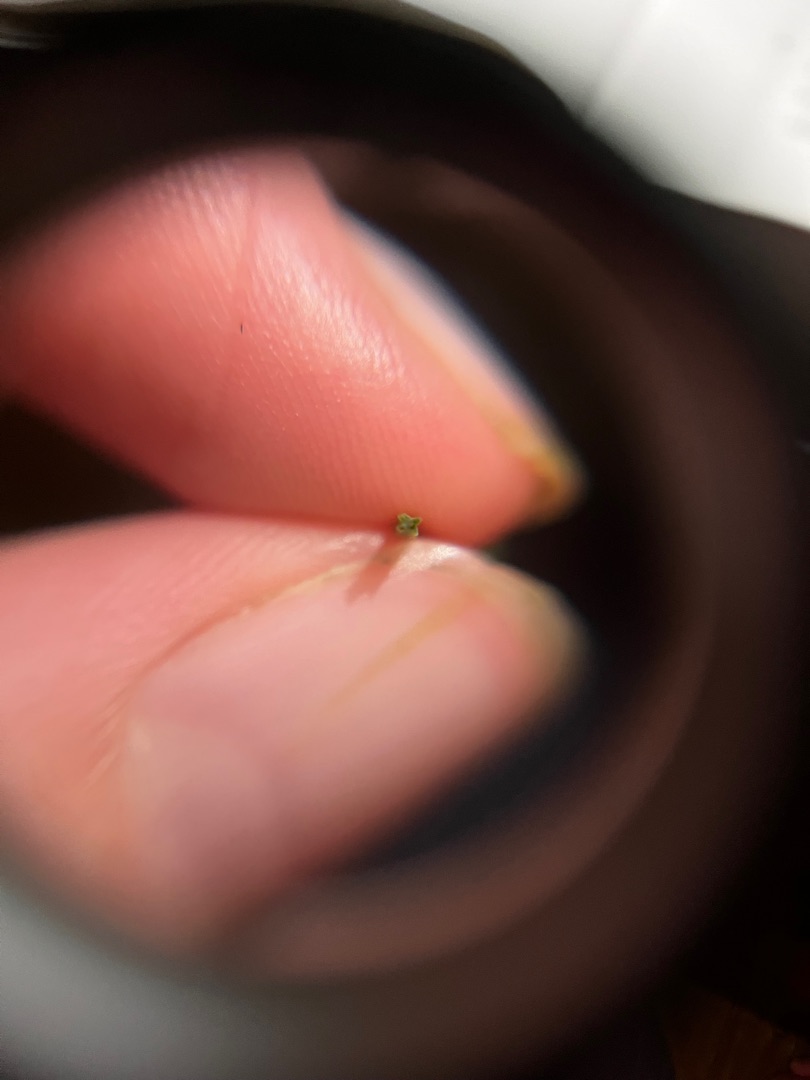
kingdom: Plantae
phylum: Tracheophyta
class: Polypodiopsida
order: Equisetales
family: Equisetaceae
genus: Equisetum
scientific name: Equisetum arvense
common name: Ager-padderok
